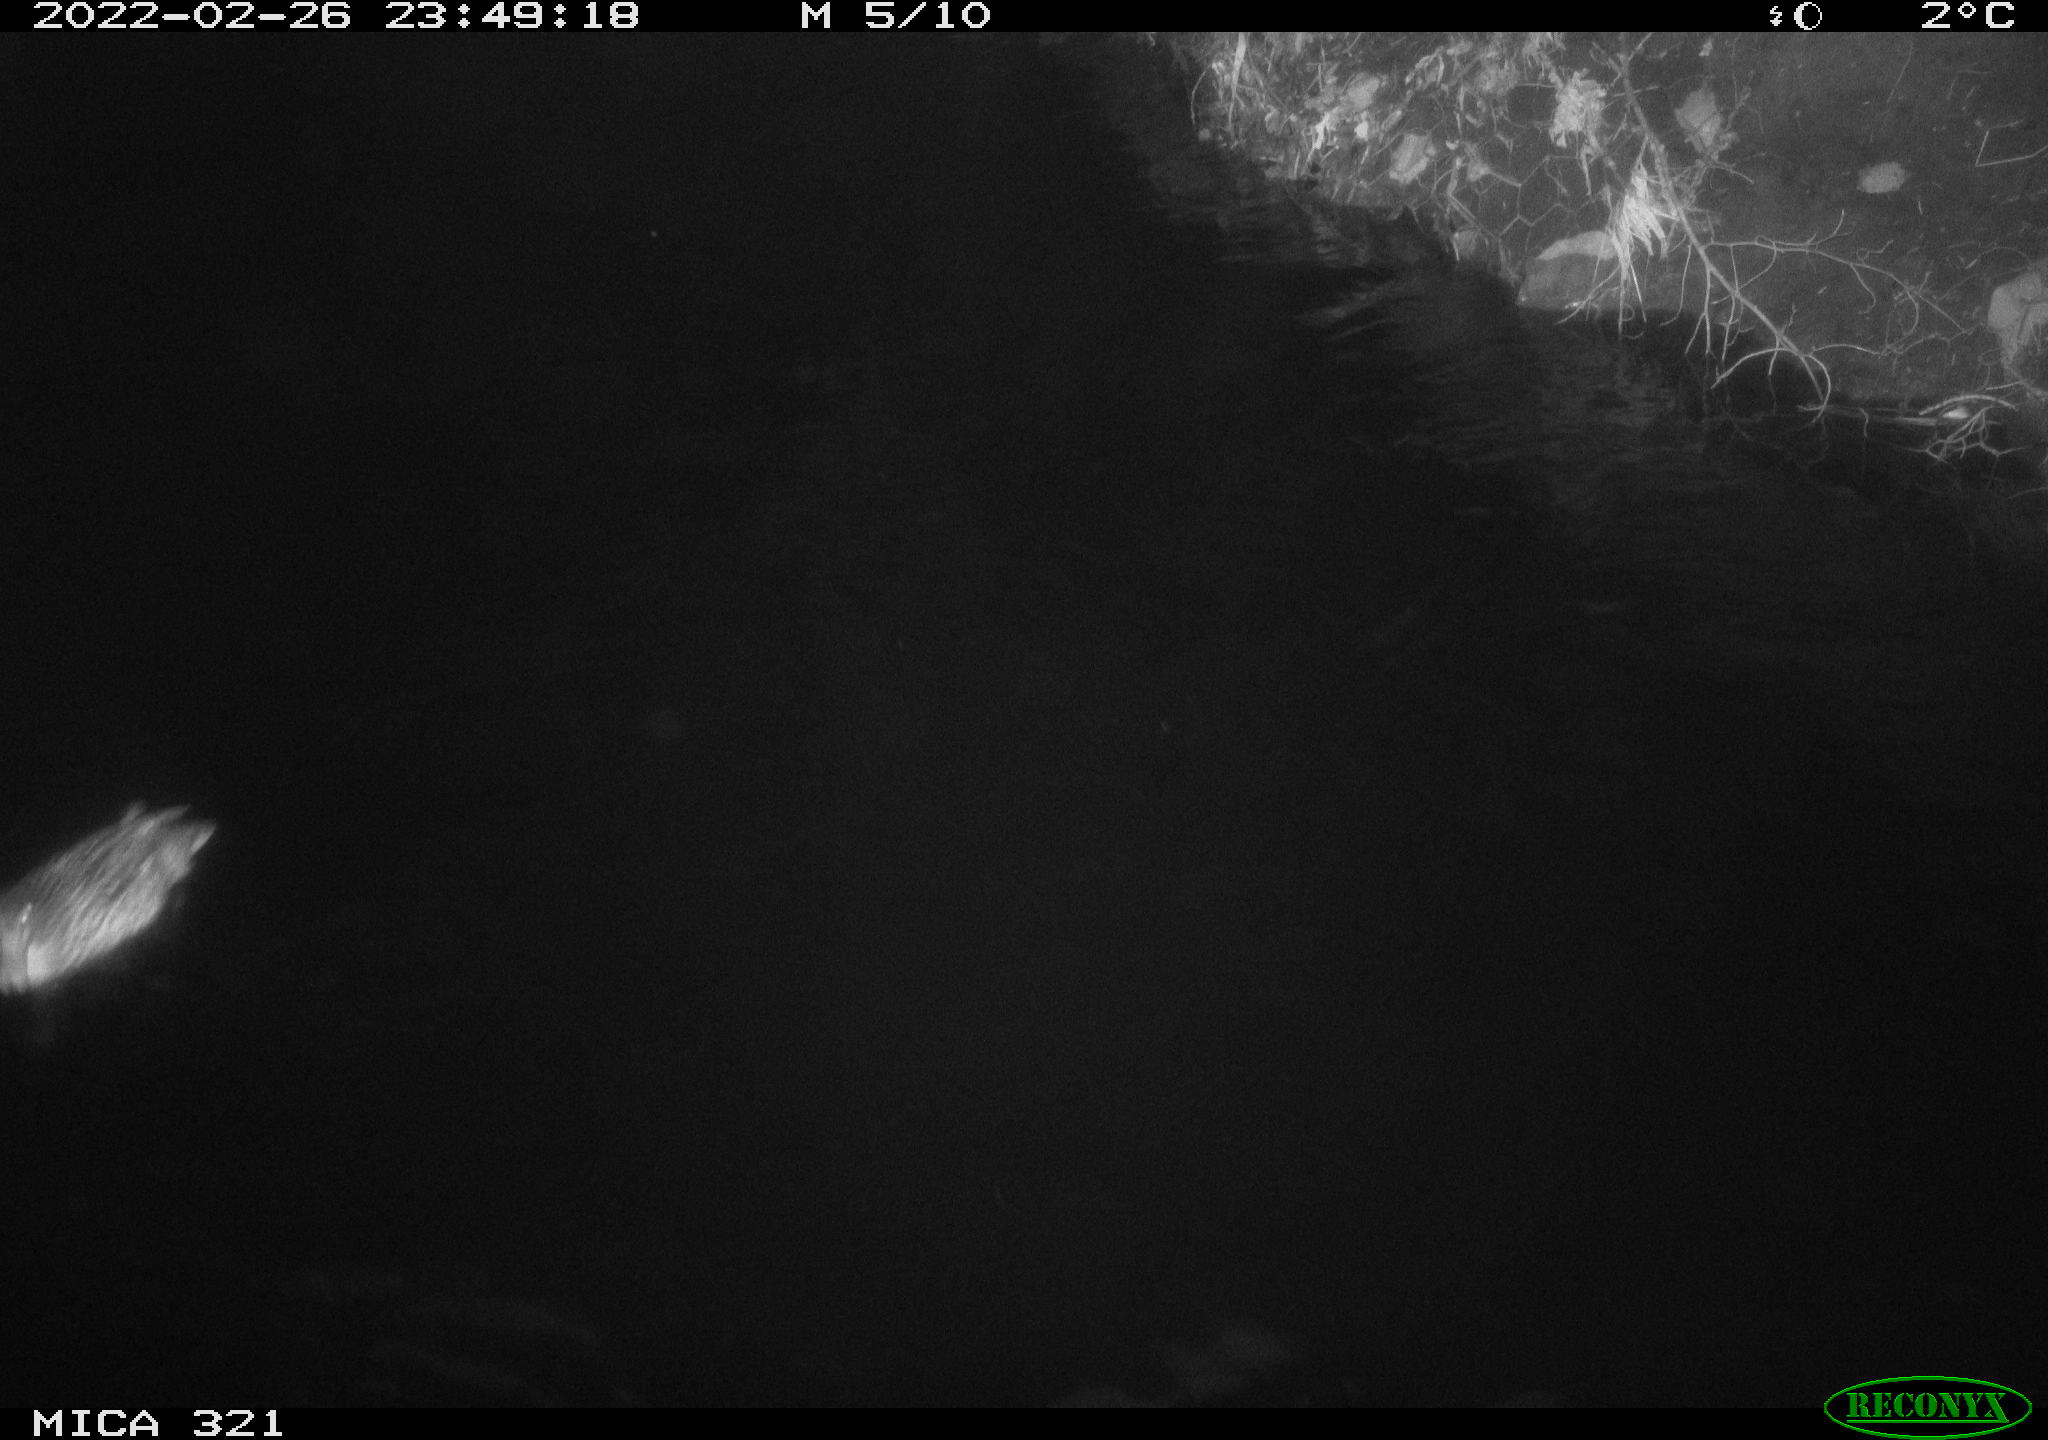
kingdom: Animalia
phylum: Chordata
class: Aves
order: Anseriformes
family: Anatidae
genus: Anas
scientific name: Anas platyrhynchos
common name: Mallard
